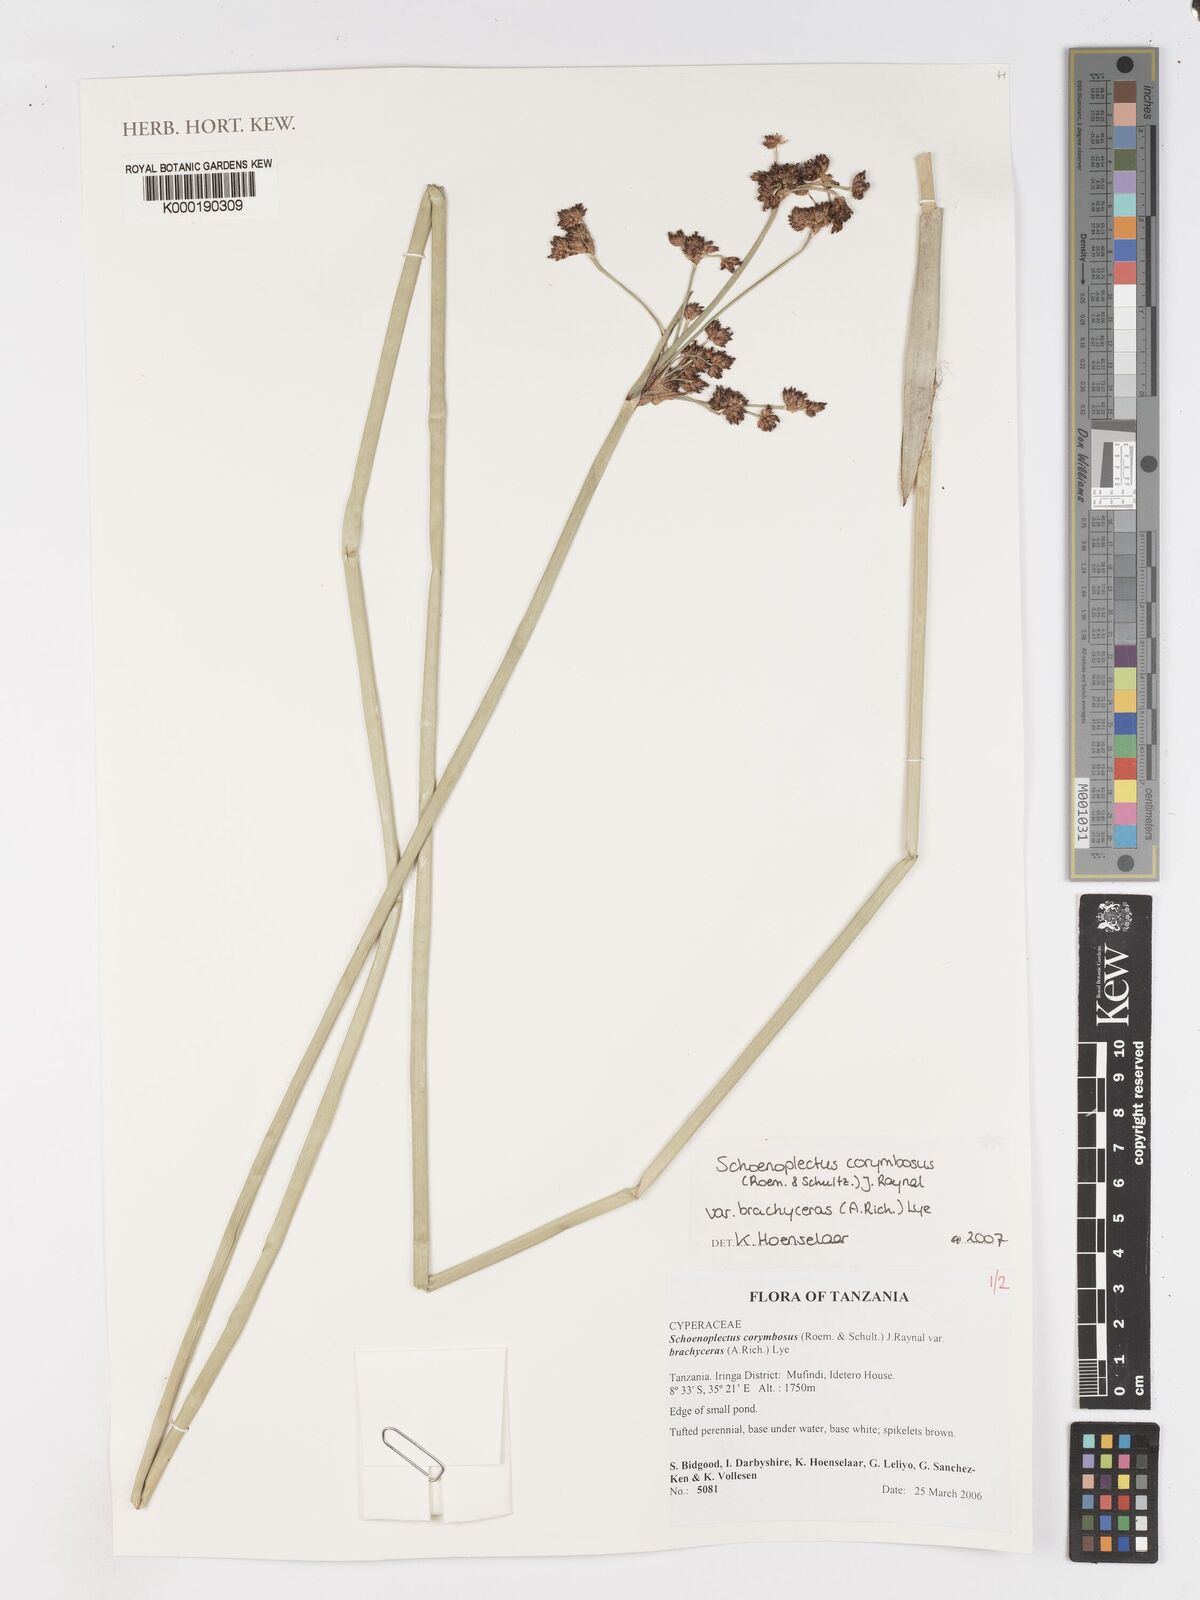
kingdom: Plantae
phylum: Tracheophyta
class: Liliopsida
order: Poales
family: Cyperaceae
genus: Schoenoplectiella
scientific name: Schoenoplectiella brachyceras
